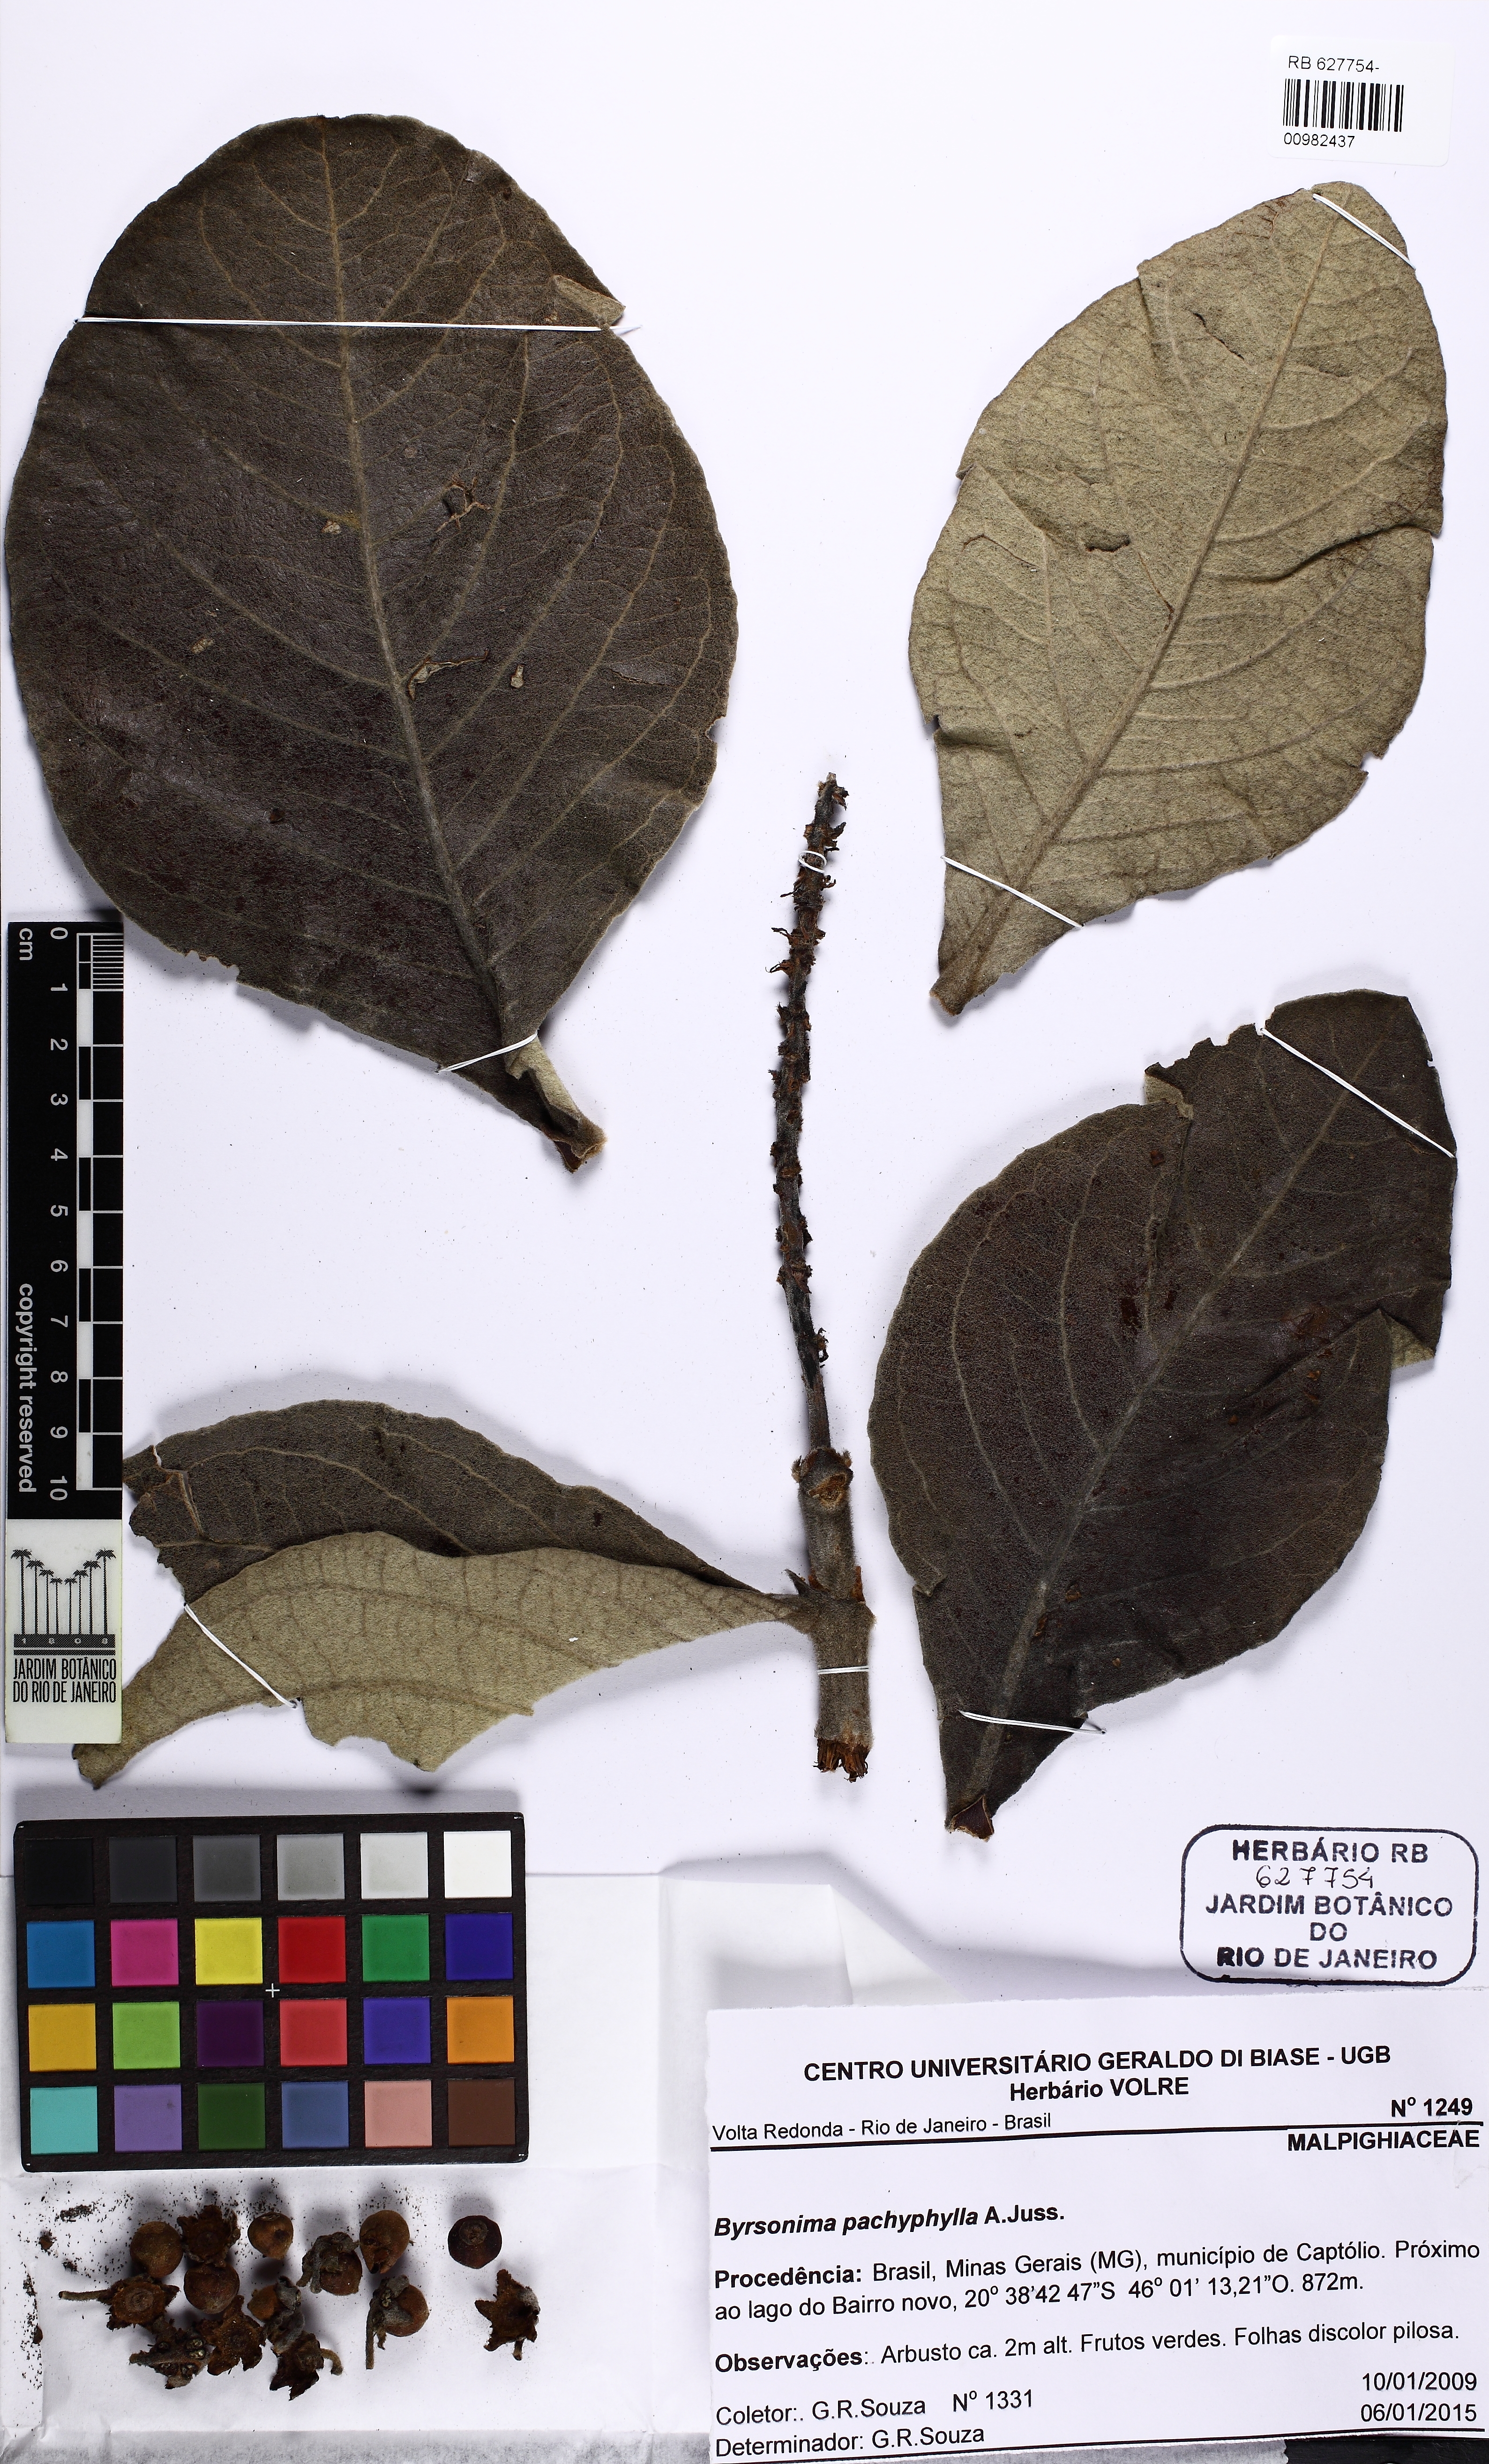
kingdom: Plantae
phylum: Tracheophyta
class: Magnoliopsida
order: Malpighiales
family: Malpighiaceae
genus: Byrsonima
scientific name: Byrsonima pachyphylla
